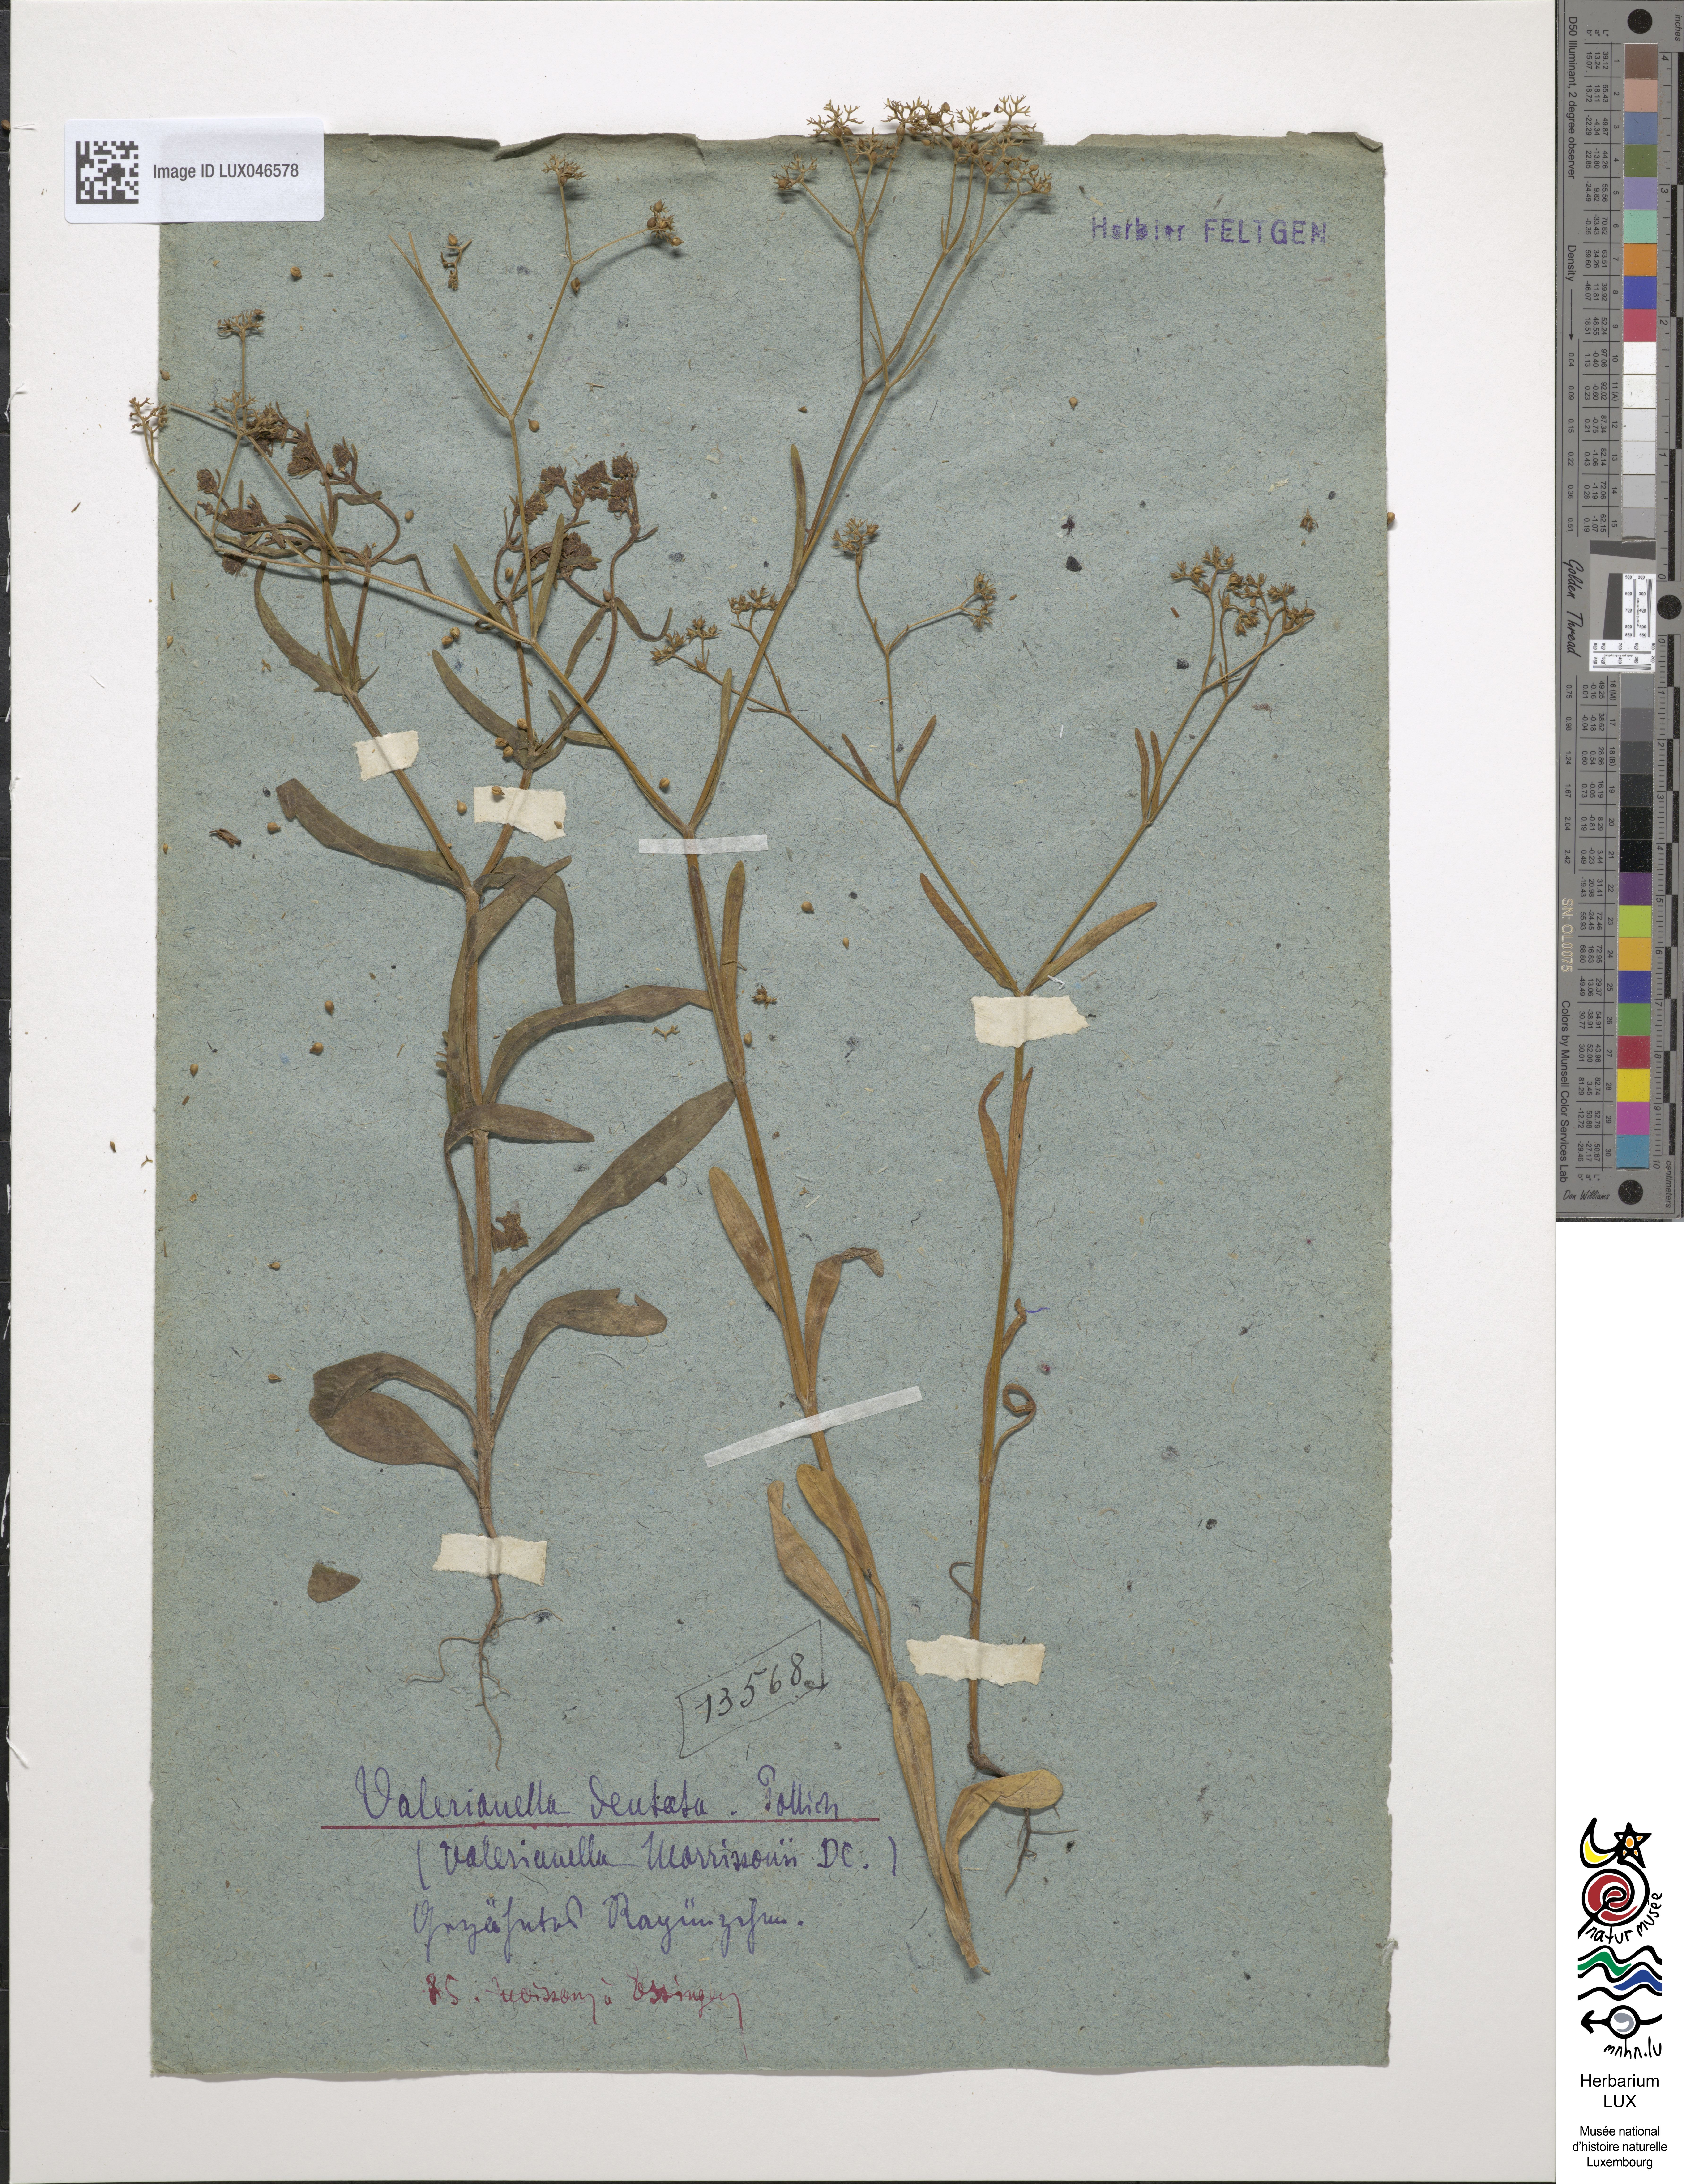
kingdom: Plantae
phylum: Tracheophyta
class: Magnoliopsida
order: Dipsacales
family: Caprifoliaceae
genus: Valerianella
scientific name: Valerianella dentata
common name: Narrow-fruited cornsalad
